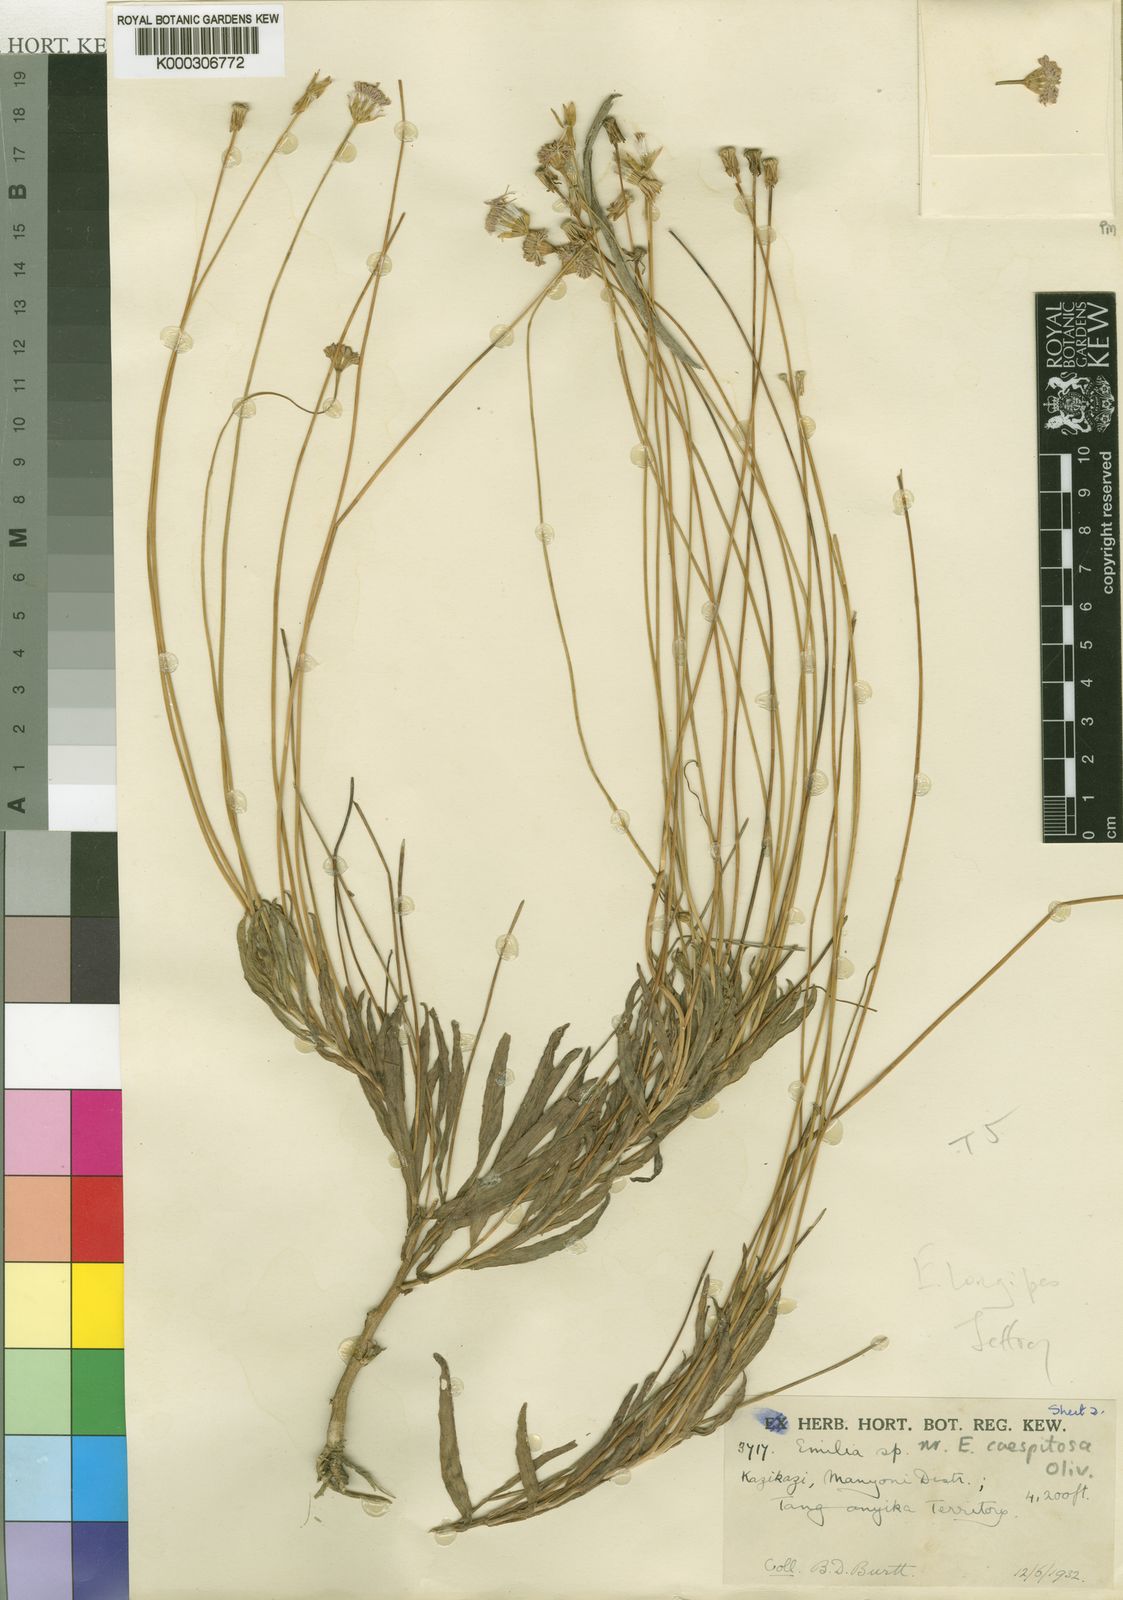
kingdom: Plantae
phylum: Tracheophyta
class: Magnoliopsida
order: Asterales
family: Asteraceae
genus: Emilia
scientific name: Emilia longipes
